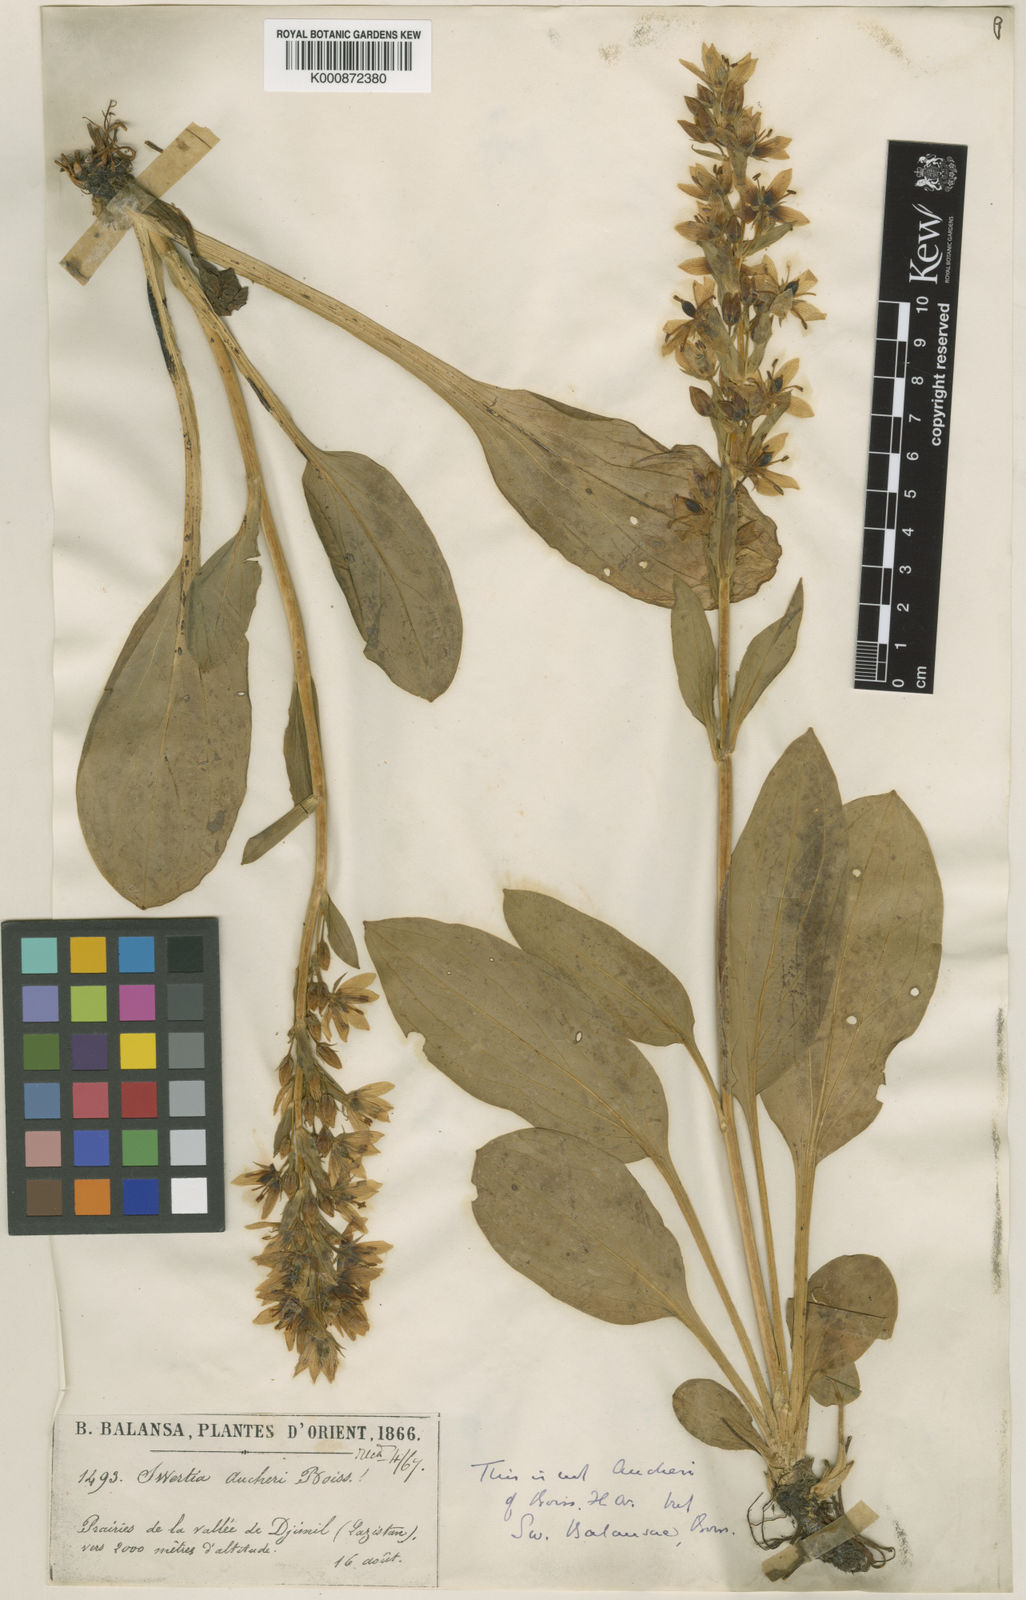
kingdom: Plantae
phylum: Tracheophyta
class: Magnoliopsida
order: Gentianales
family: Gentianaceae
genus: Swertia
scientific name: Swertia
